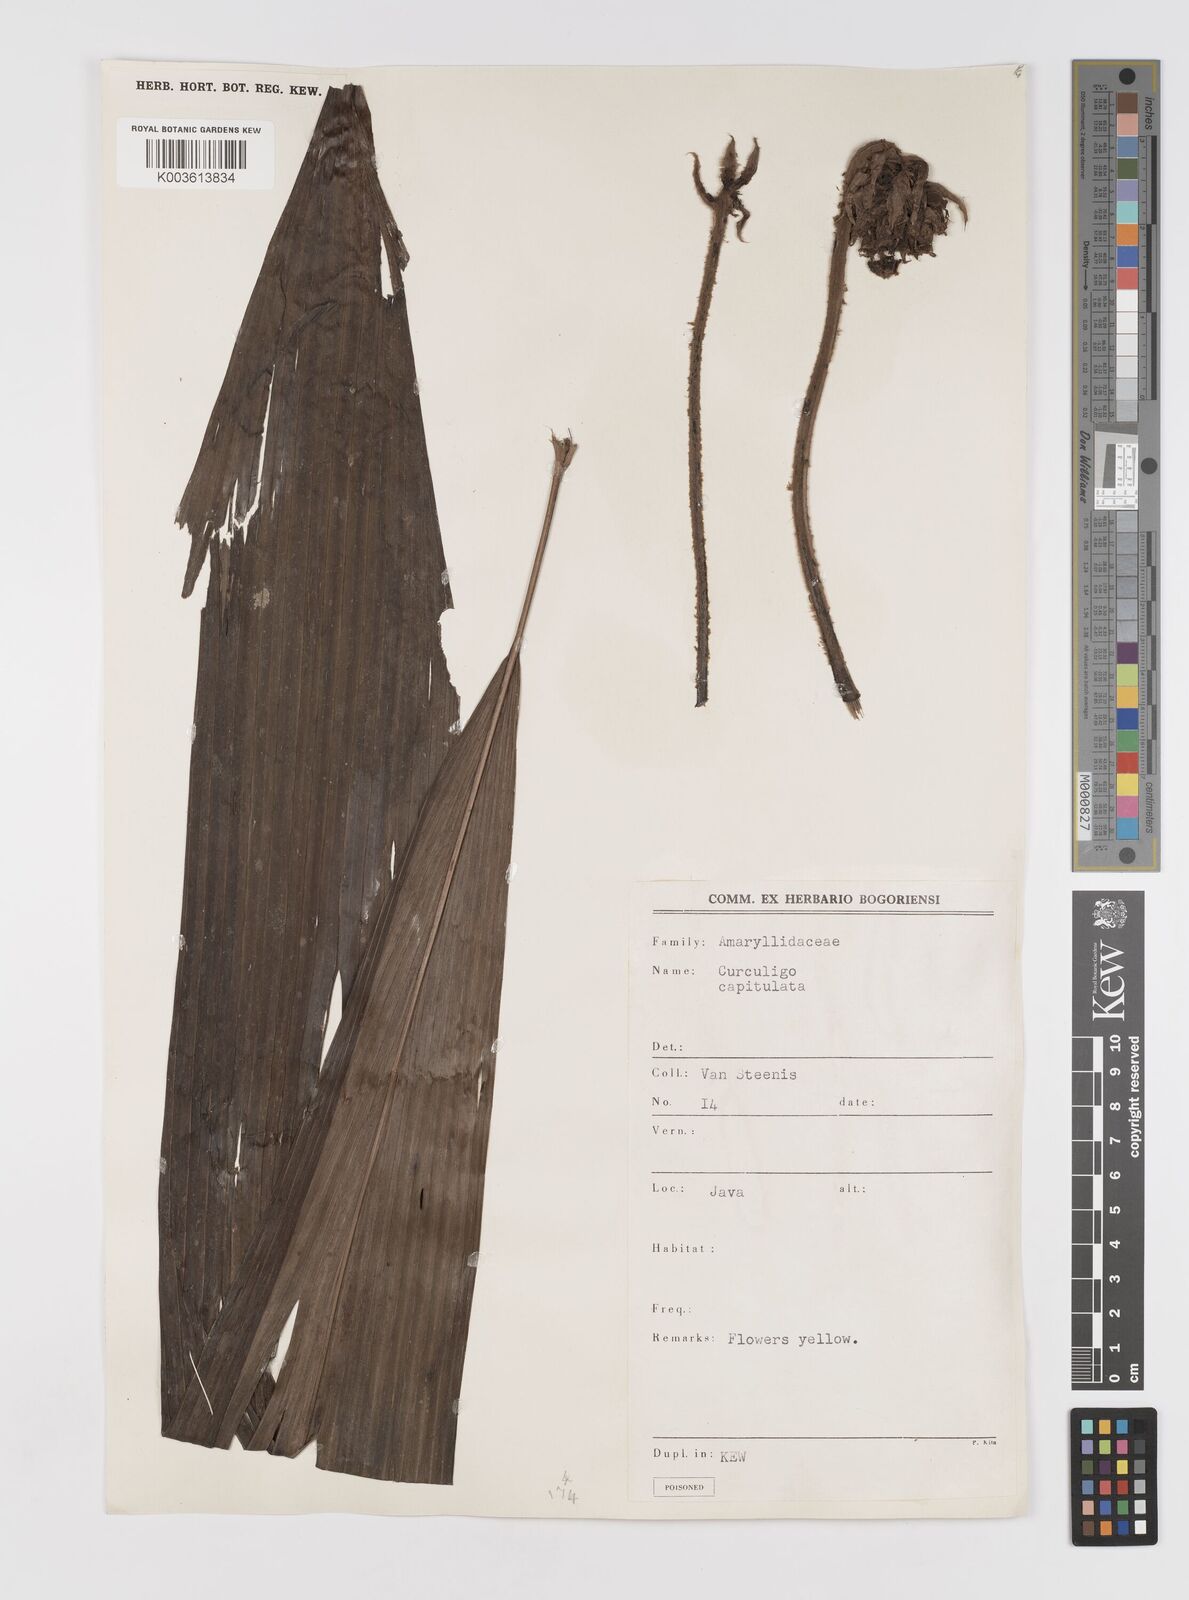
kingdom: Plantae
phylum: Tracheophyta
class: Liliopsida
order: Asparagales
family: Hypoxidaceae
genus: Curculigo
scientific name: Curculigo capitulata
